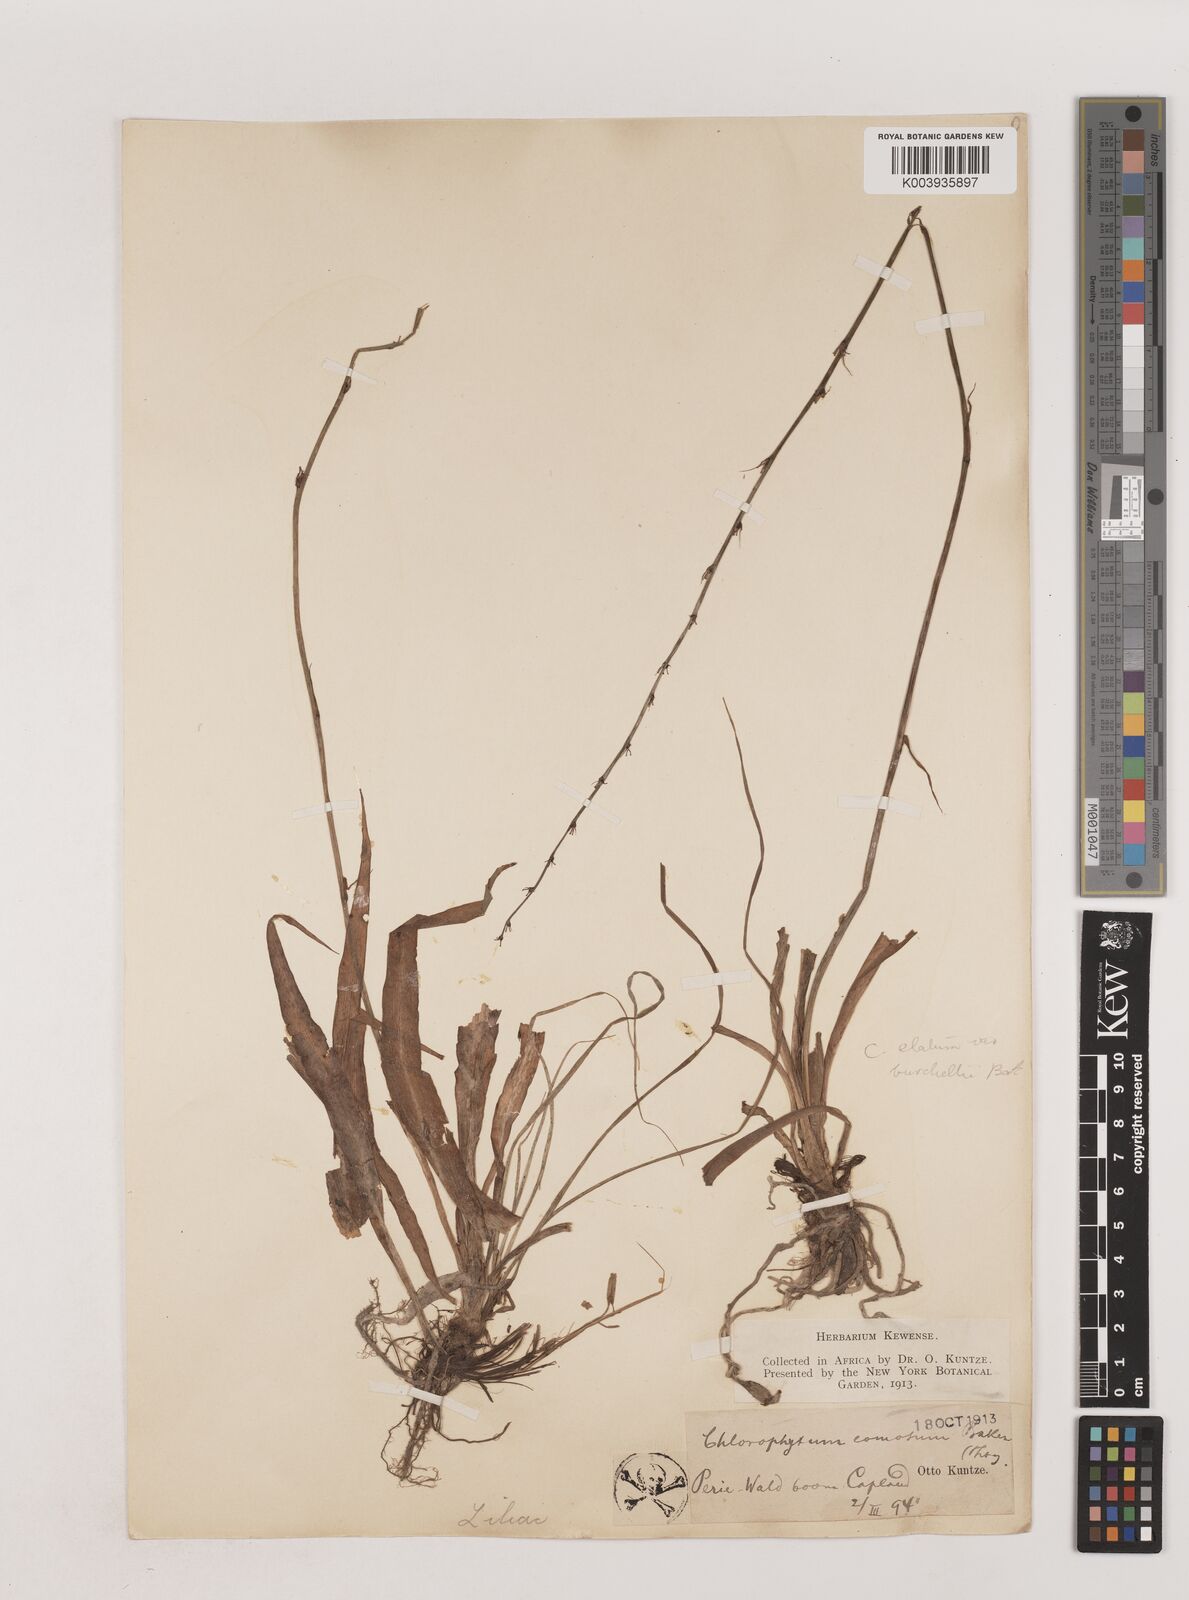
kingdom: Plantae
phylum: Tracheophyta
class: Liliopsida
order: Asparagales
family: Asparagaceae
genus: Chlorophytum
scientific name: Chlorophytum comosum
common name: Spider plant
